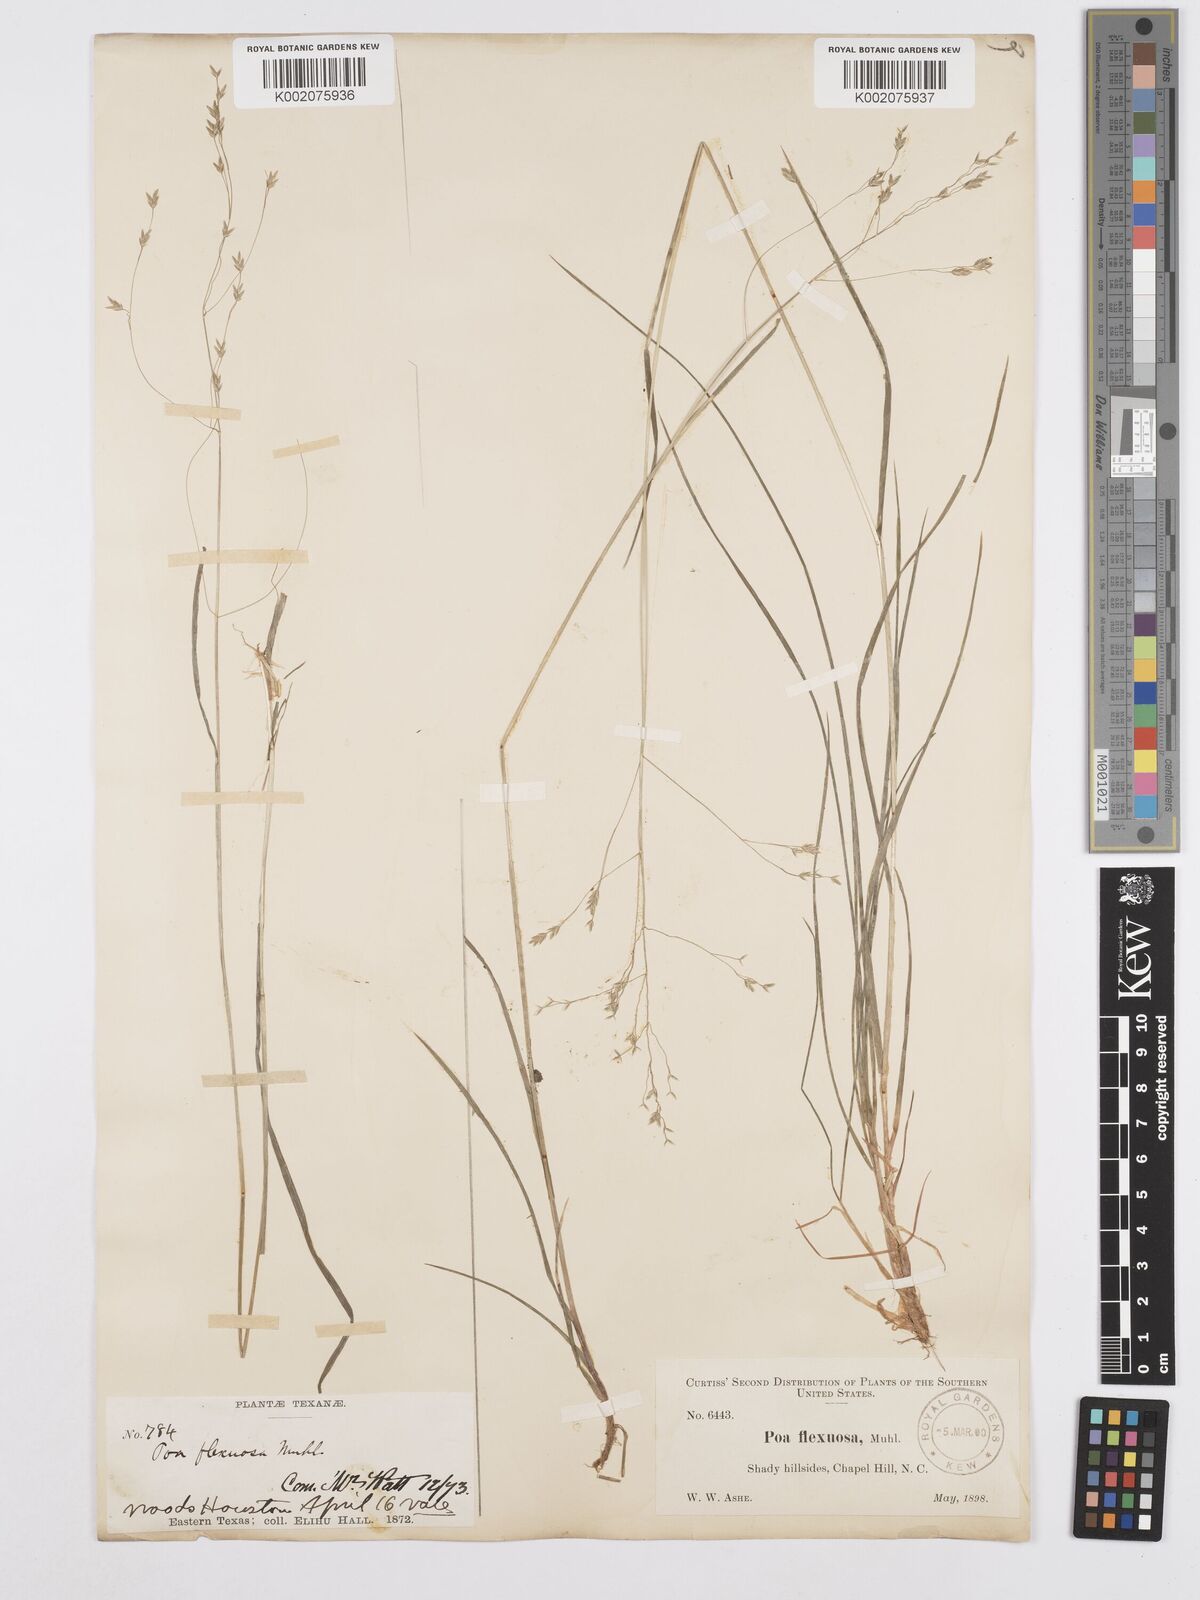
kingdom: Plantae
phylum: Tracheophyta
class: Liliopsida
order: Poales
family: Poaceae
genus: Poa
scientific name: Poa autumnalis
